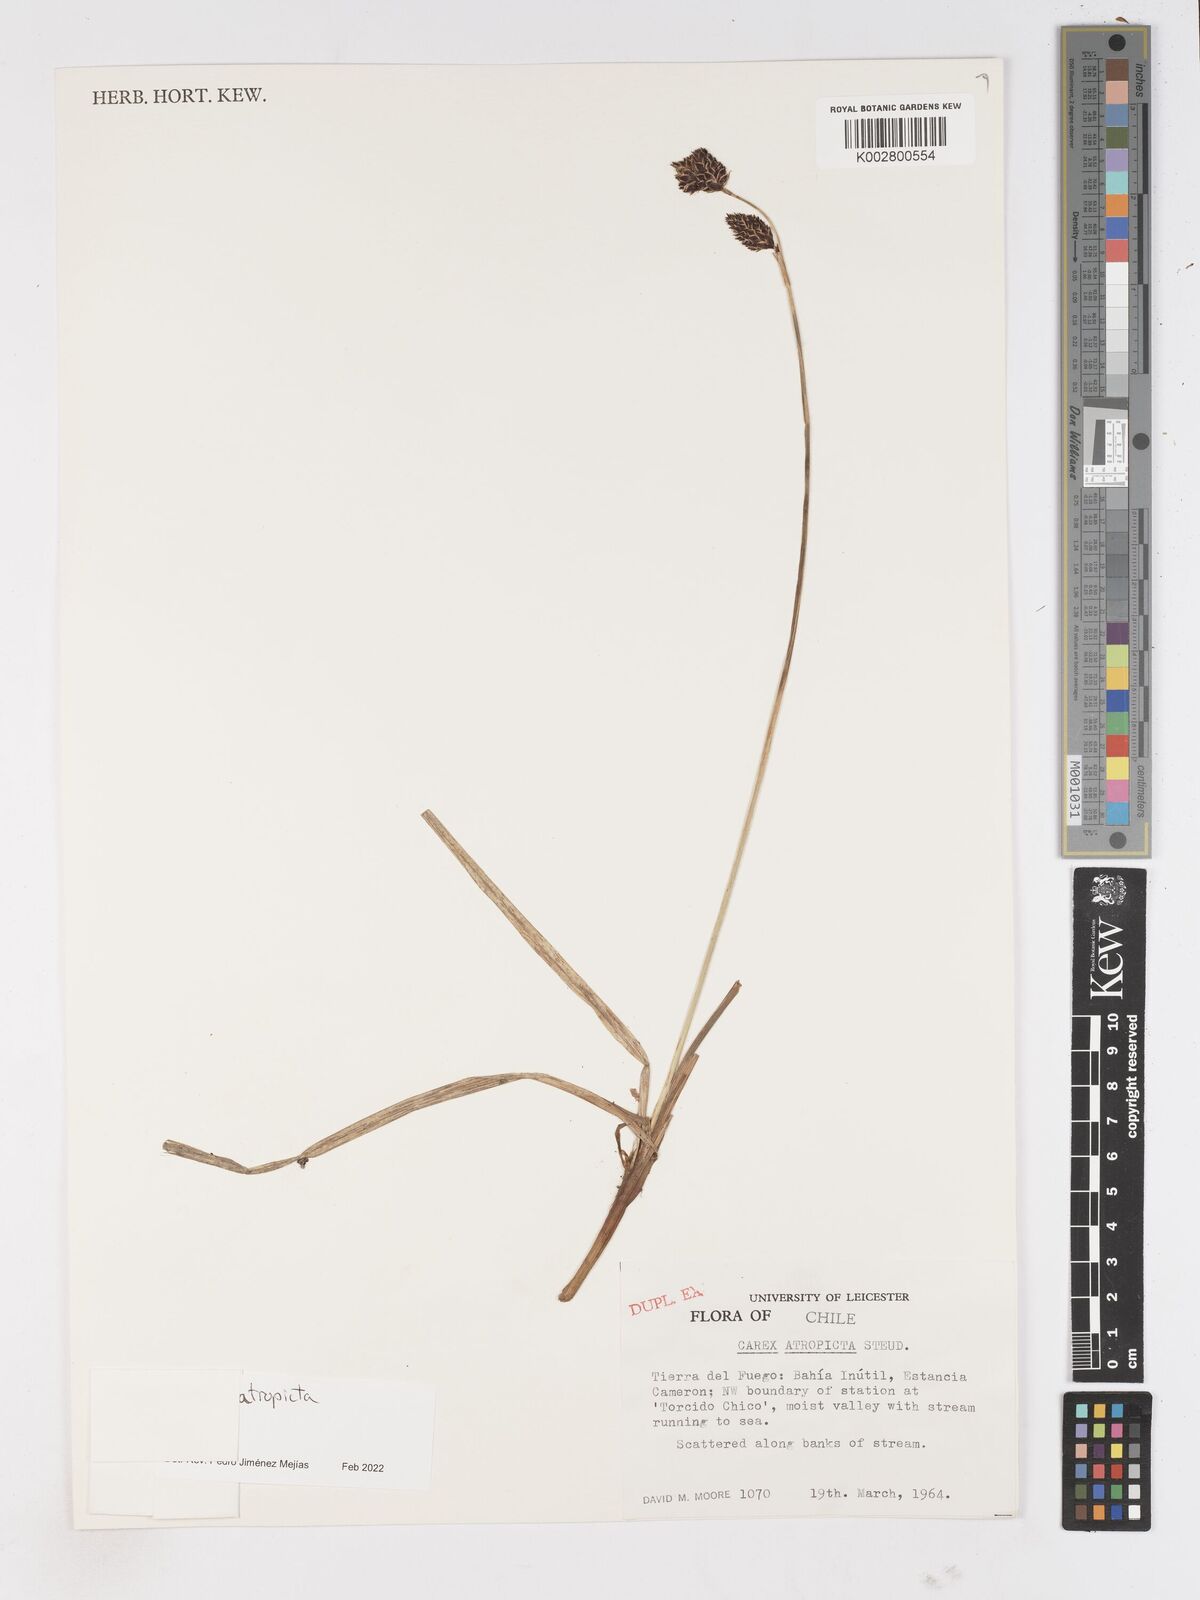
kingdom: Plantae
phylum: Tracheophyta
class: Liliopsida
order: Poales
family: Cyperaceae
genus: Carex
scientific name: Carex atropicta
